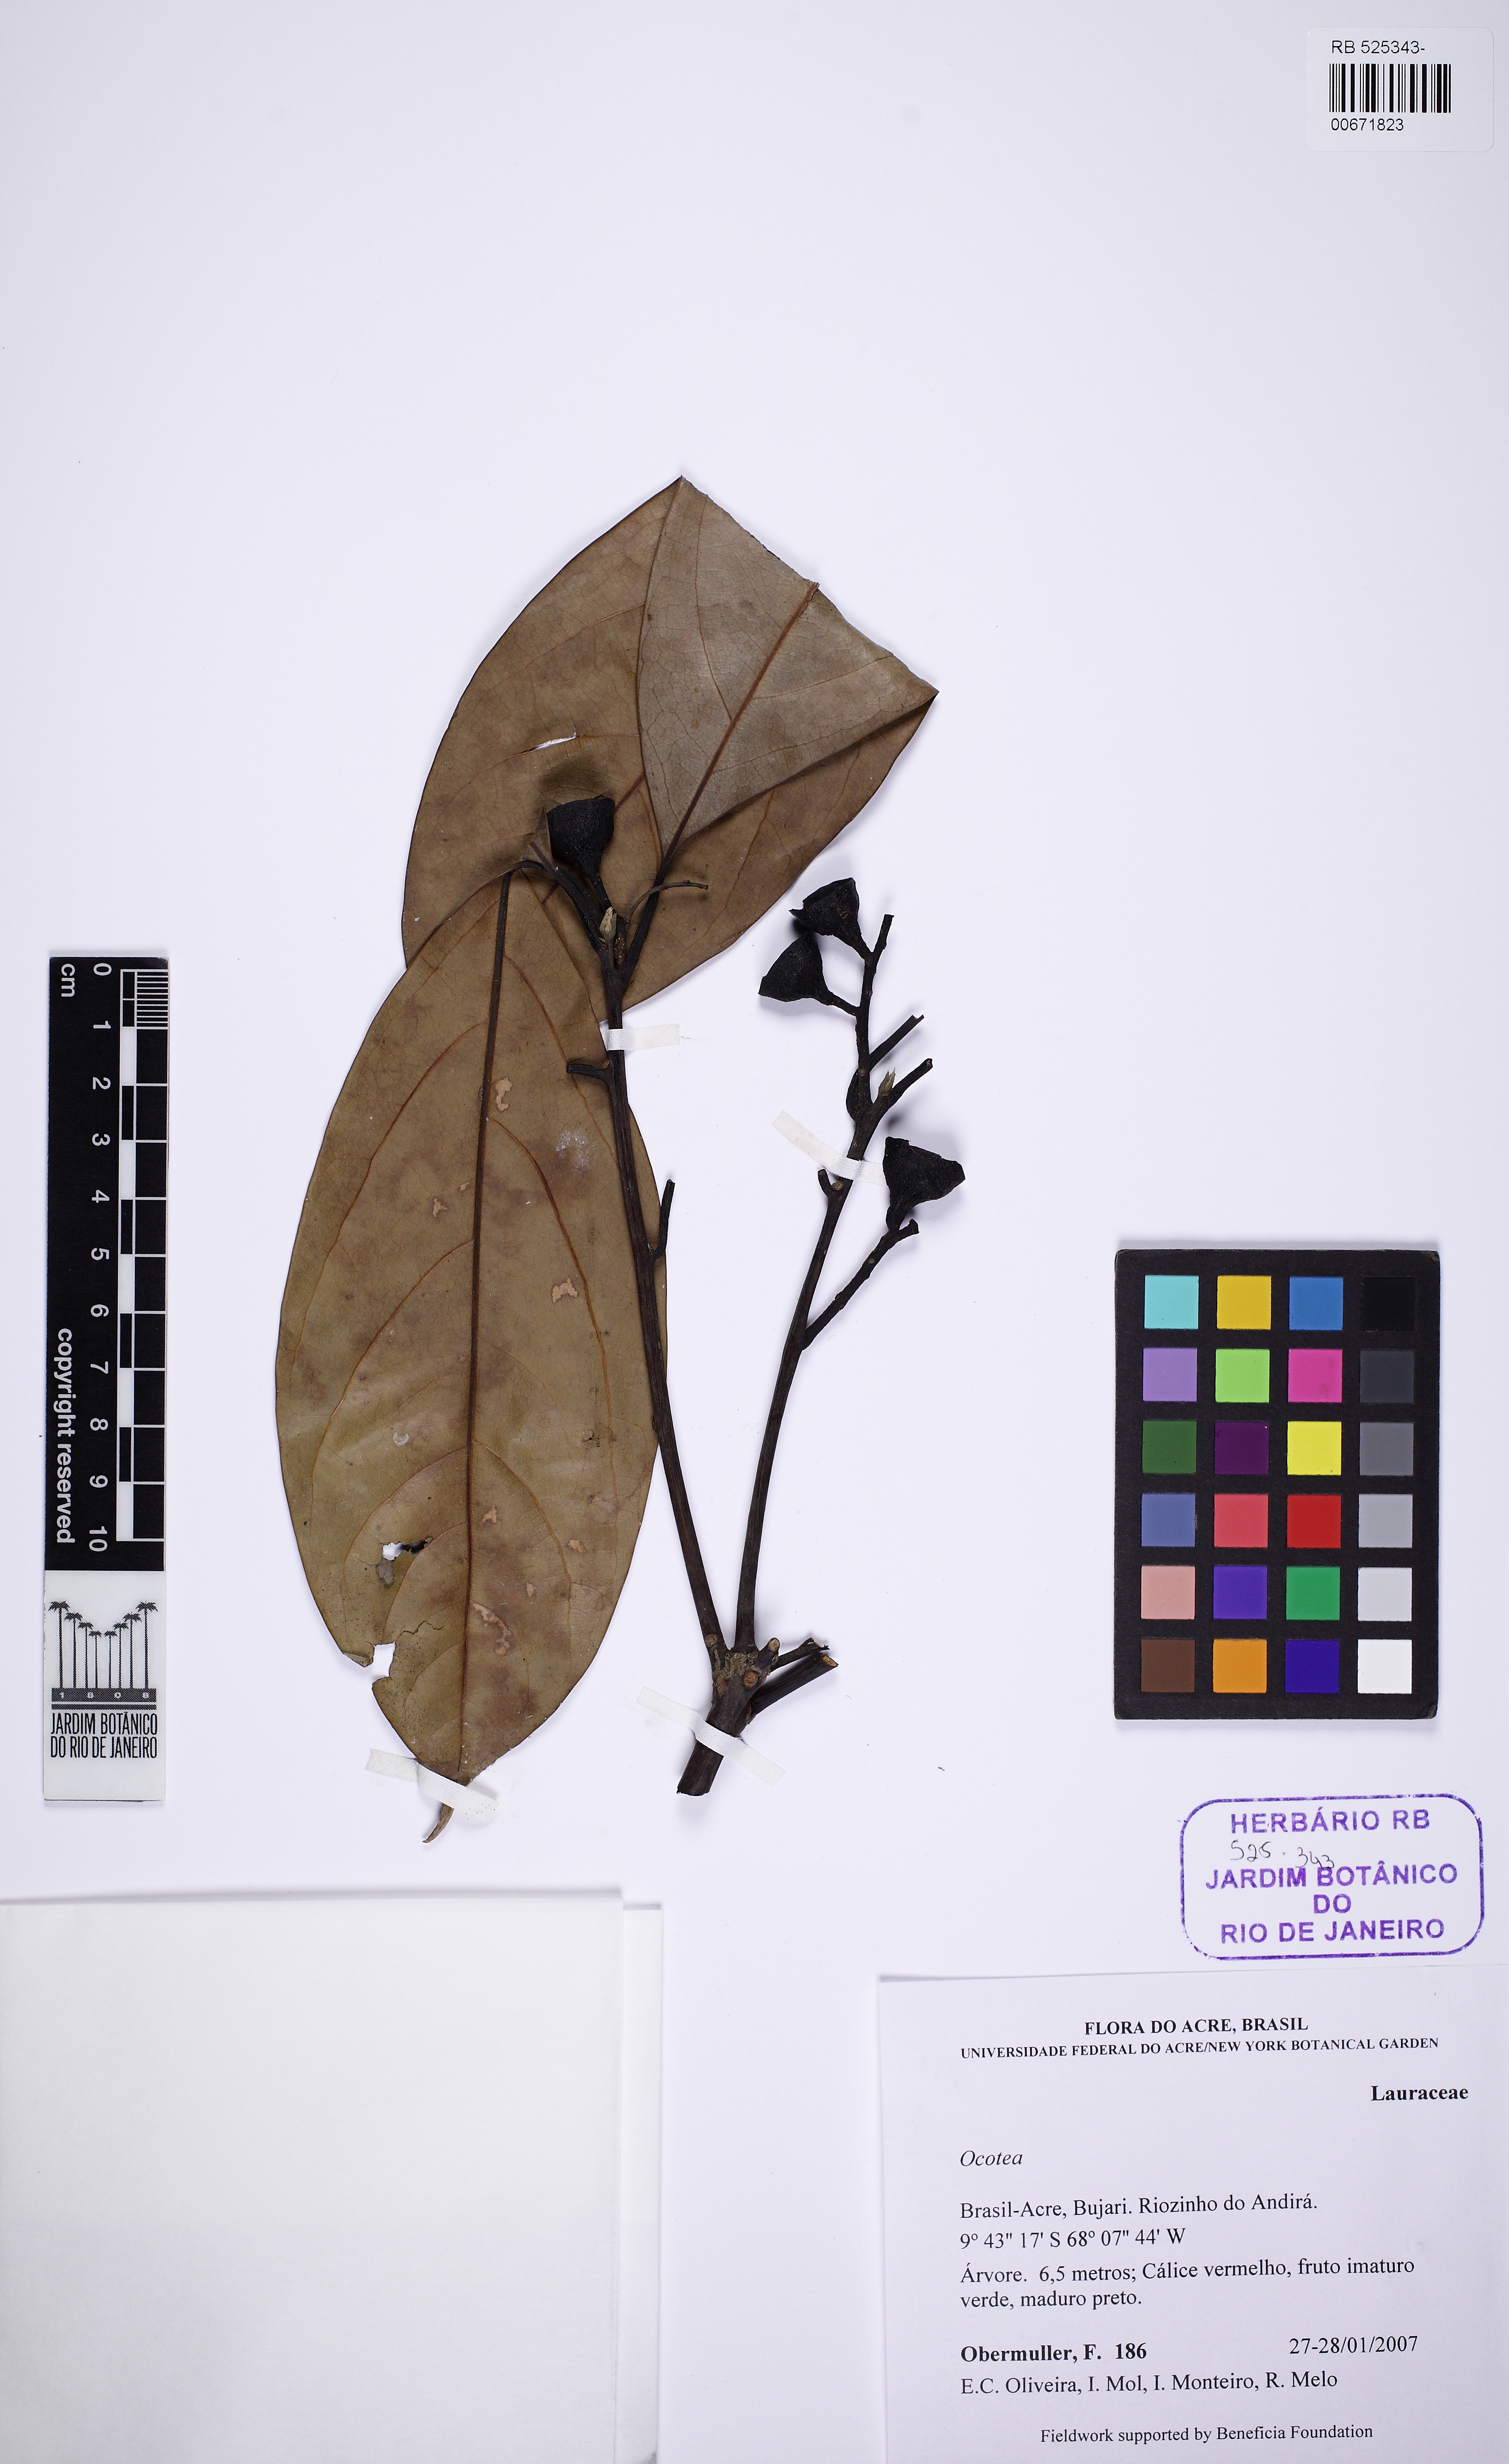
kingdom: Plantae
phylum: Tracheophyta
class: Magnoliopsida
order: Laurales
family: Lauraceae
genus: Ocotea
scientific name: Ocotea
